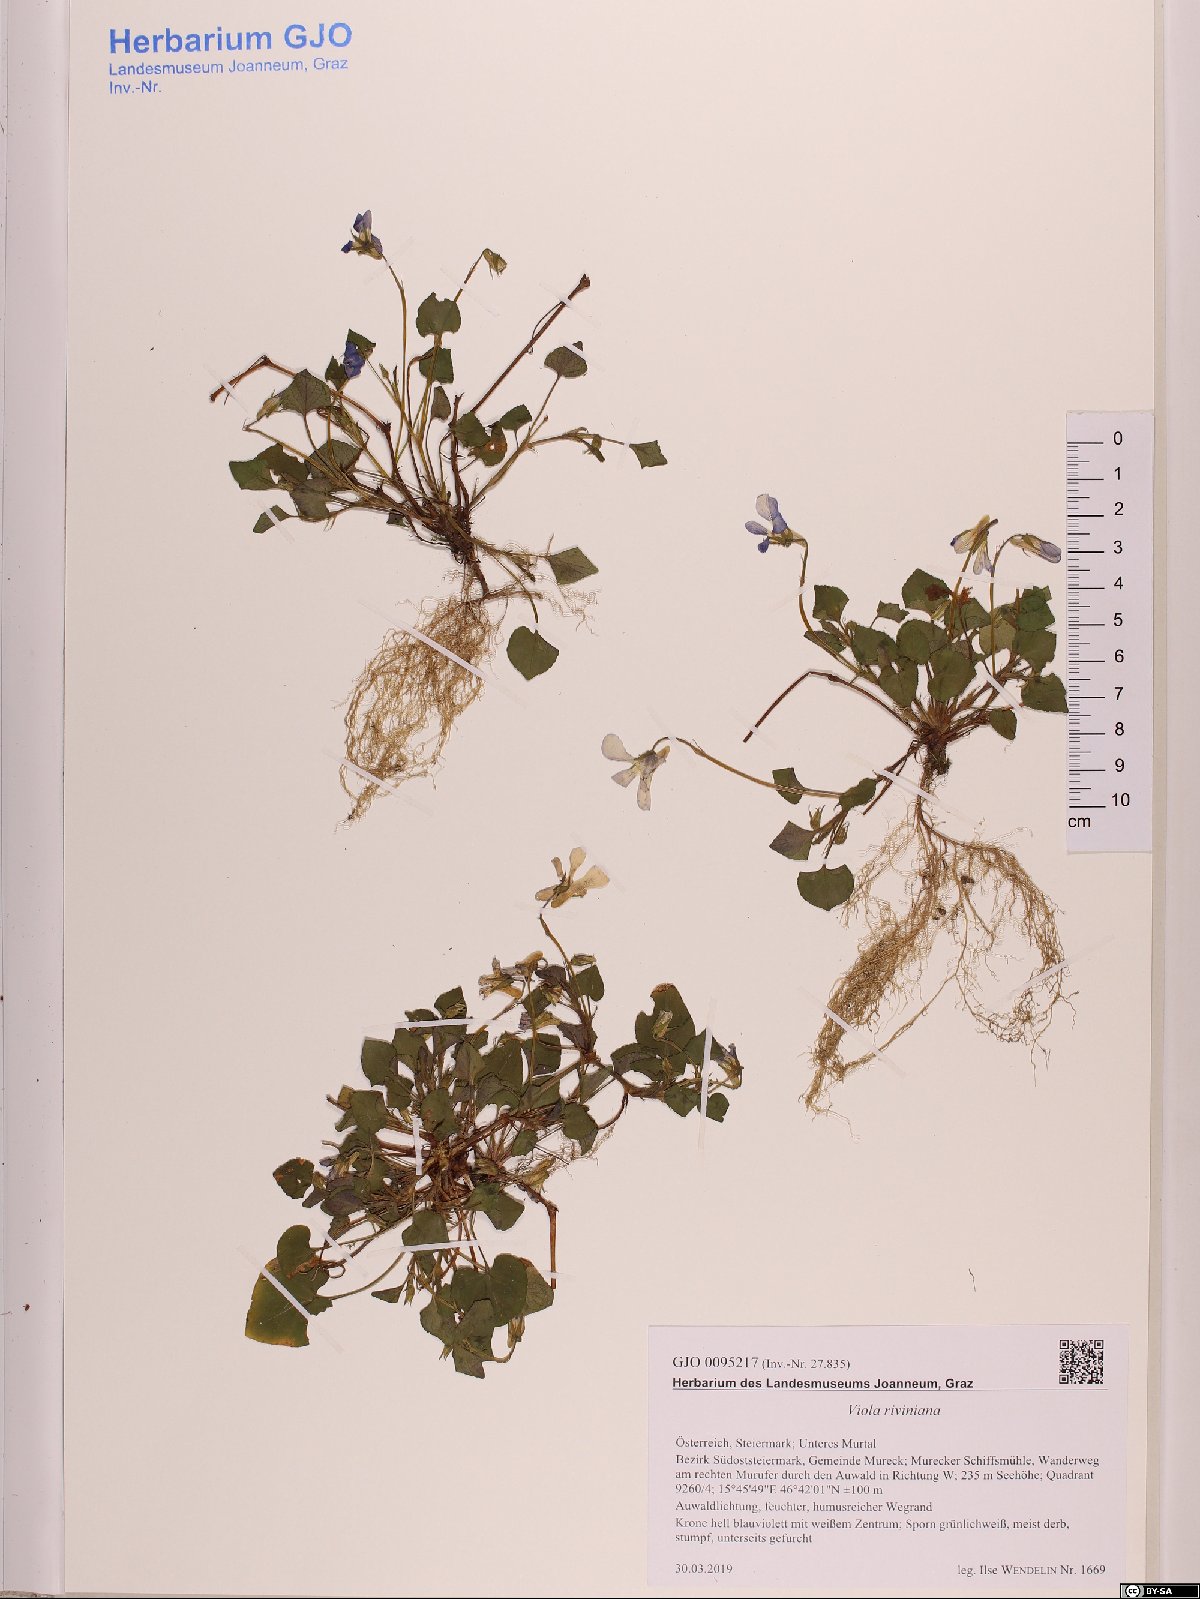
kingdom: Plantae
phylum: Tracheophyta
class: Magnoliopsida
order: Malpighiales
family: Violaceae
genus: Viola
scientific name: Viola riviniana
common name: Common dog-violet
